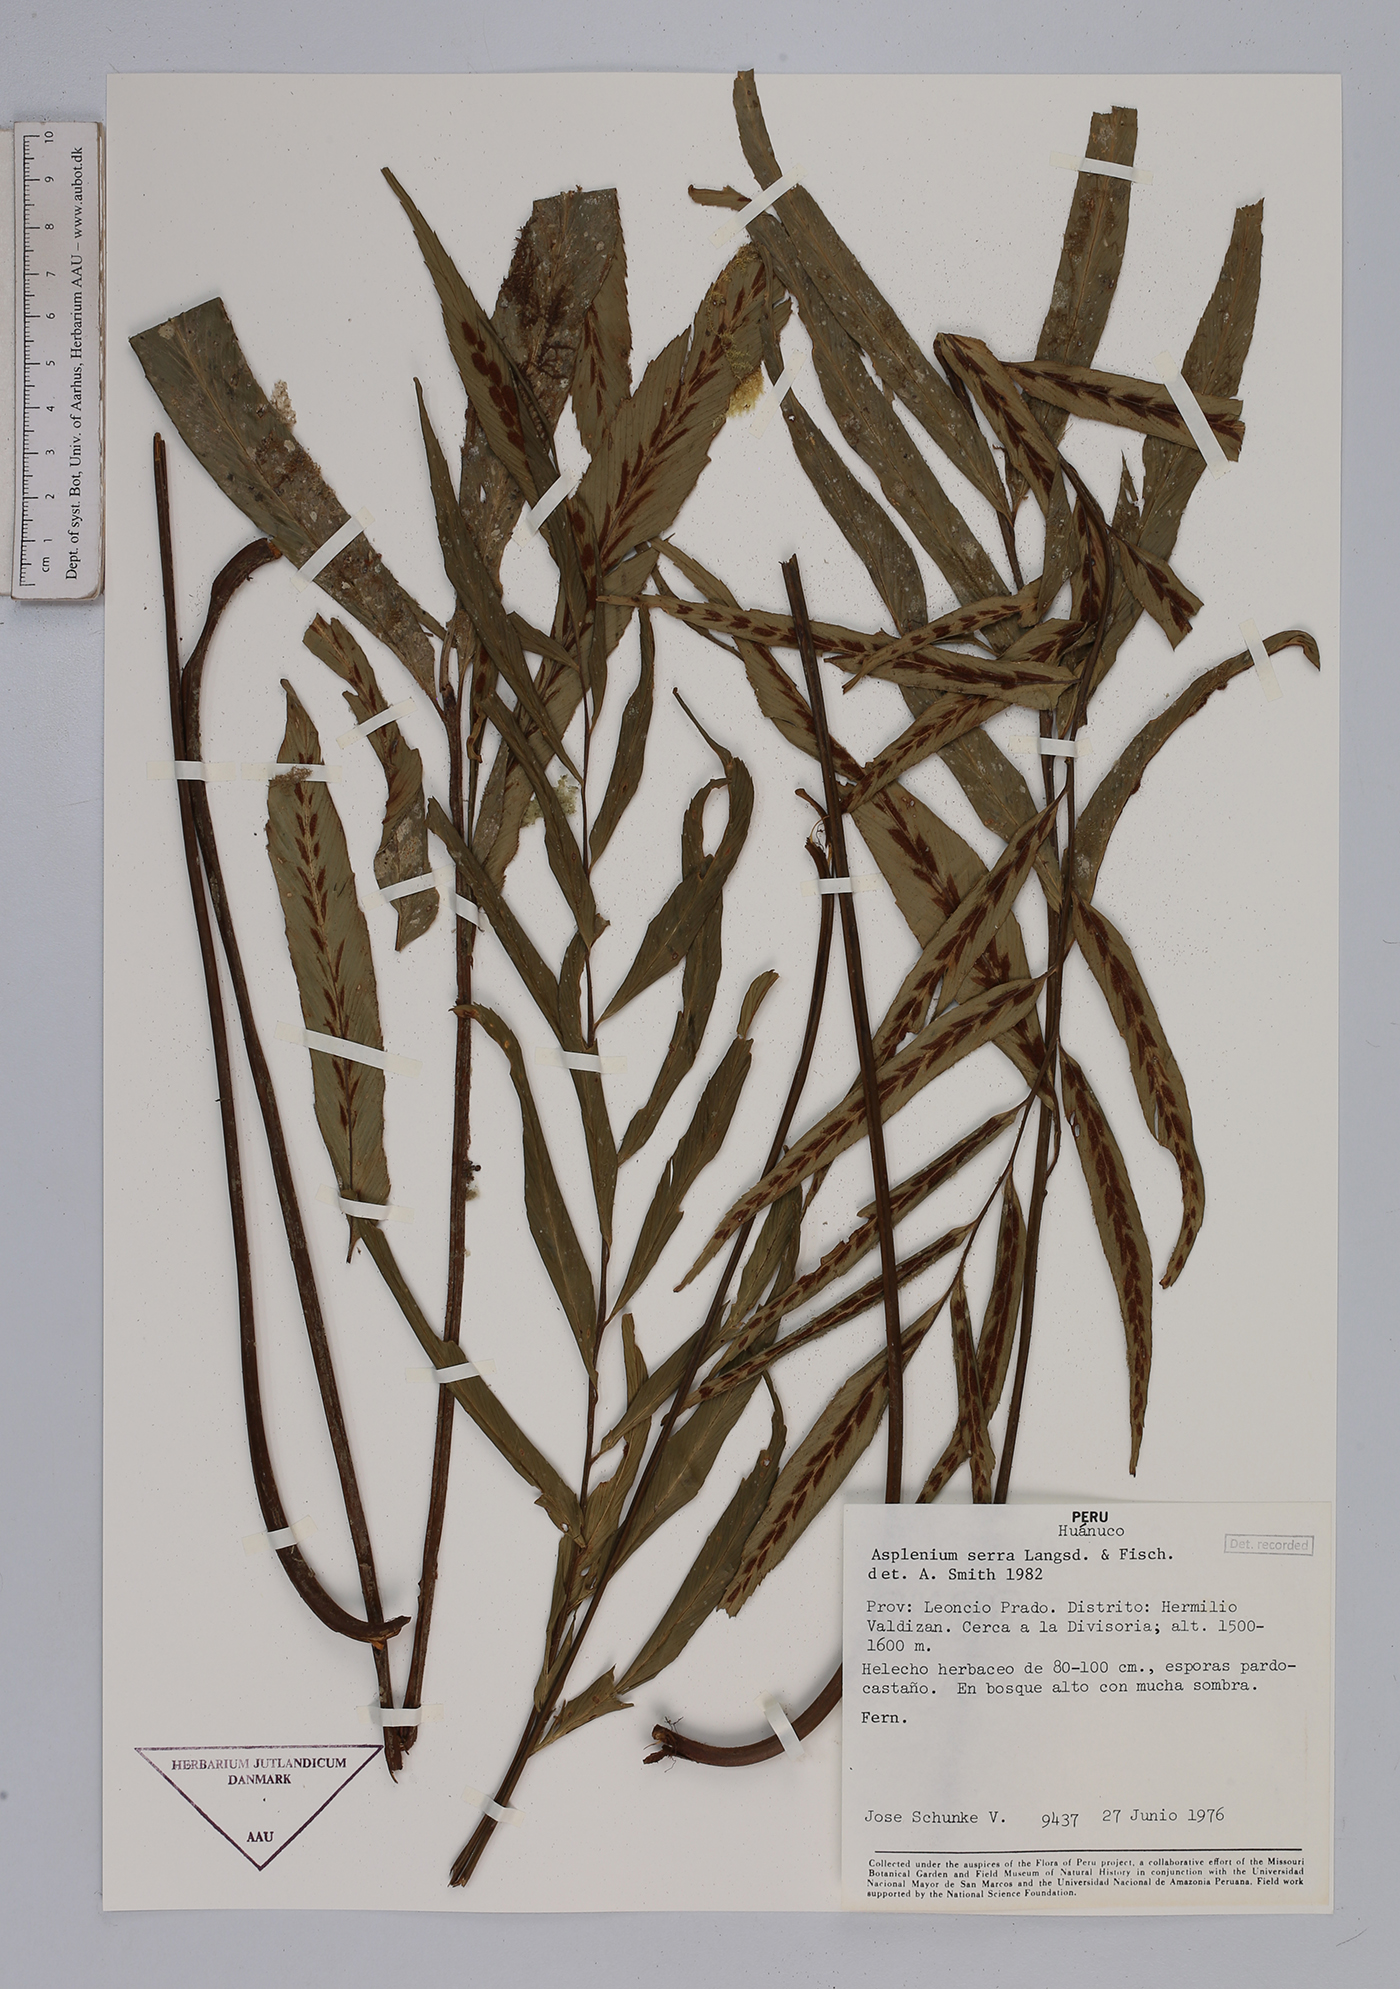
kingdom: Plantae
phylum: Tracheophyta
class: Polypodiopsida
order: Polypodiales
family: Aspleniaceae
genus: Asplenium
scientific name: Asplenium serra
